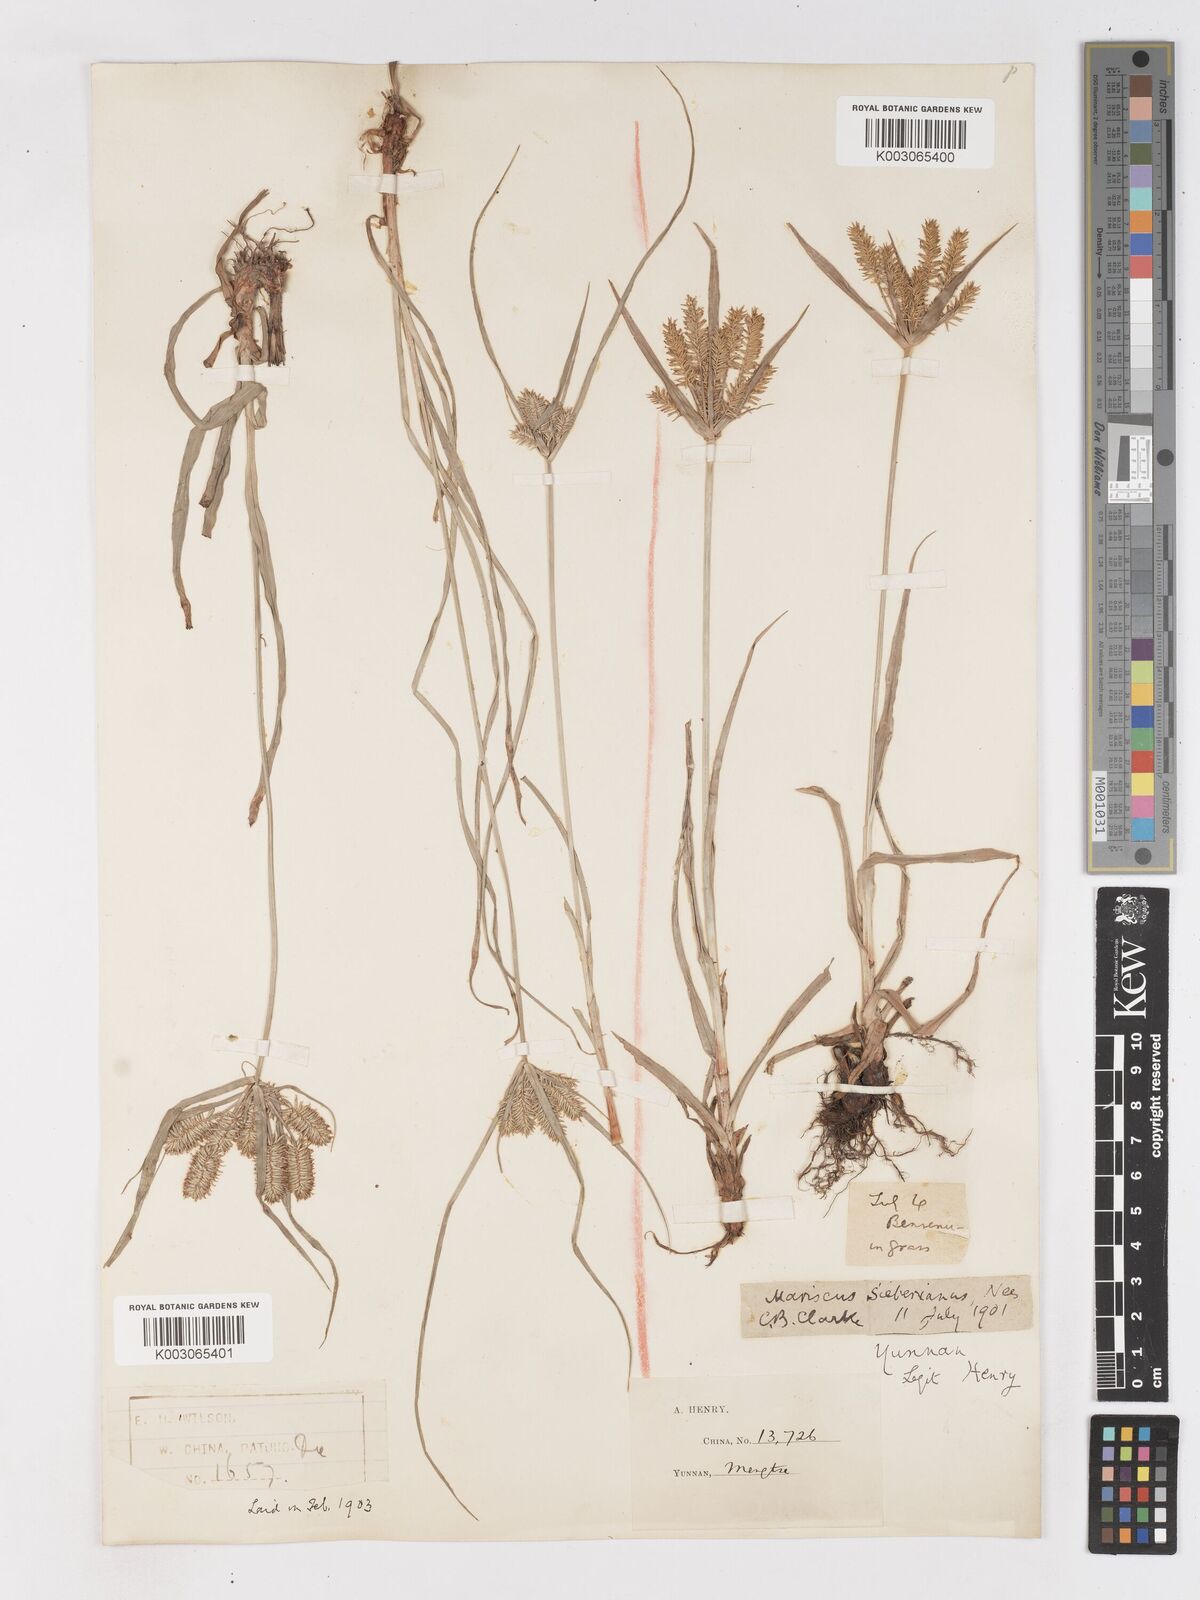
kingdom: Plantae
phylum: Tracheophyta
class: Liliopsida
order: Poales
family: Cyperaceae
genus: Cyperus
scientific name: Cyperus cyperoides
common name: Pacific island flat sedge
